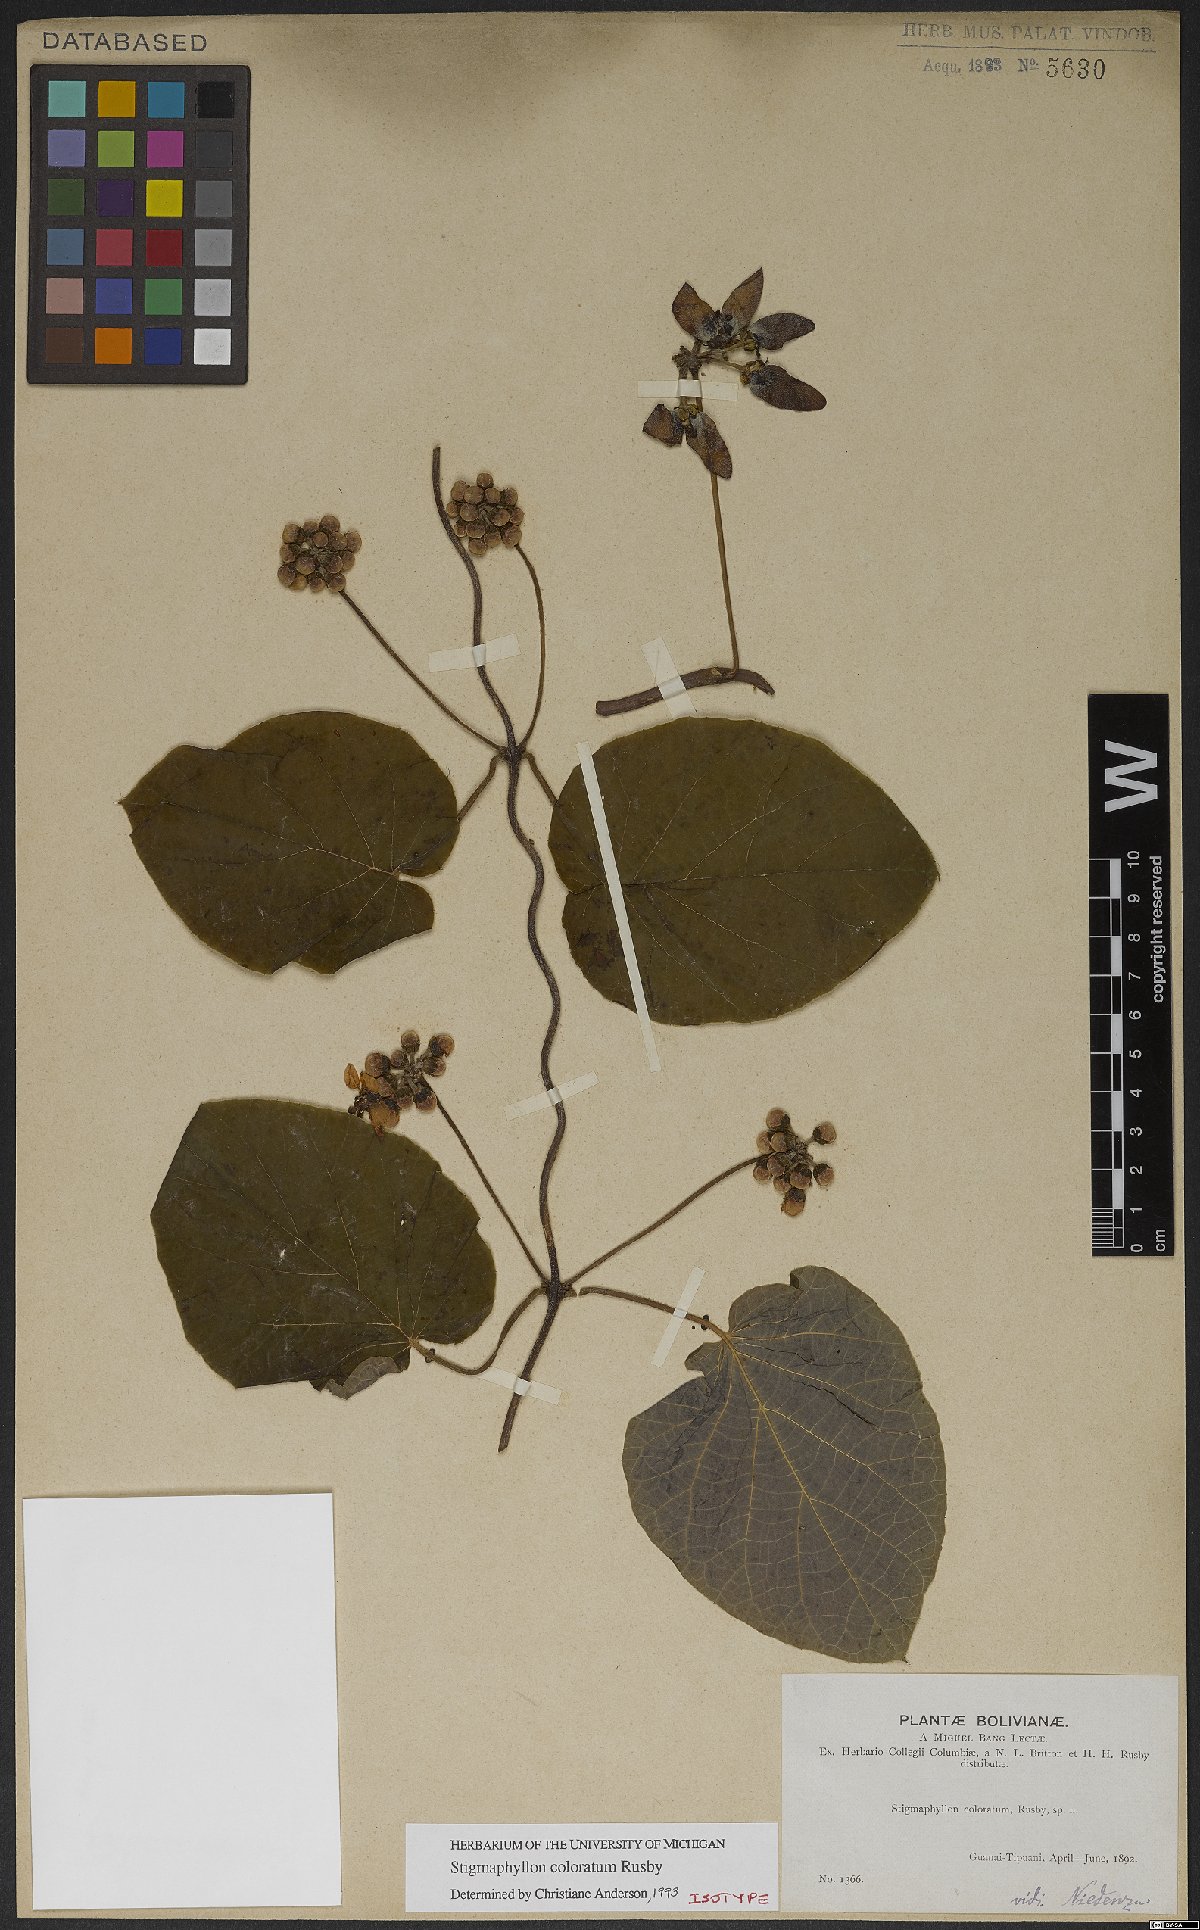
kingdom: Plantae
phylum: Tracheophyta
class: Magnoliopsida
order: Malpighiales
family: Malpighiaceae
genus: Stigmaphyllon
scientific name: Stigmaphyllon coloratum
